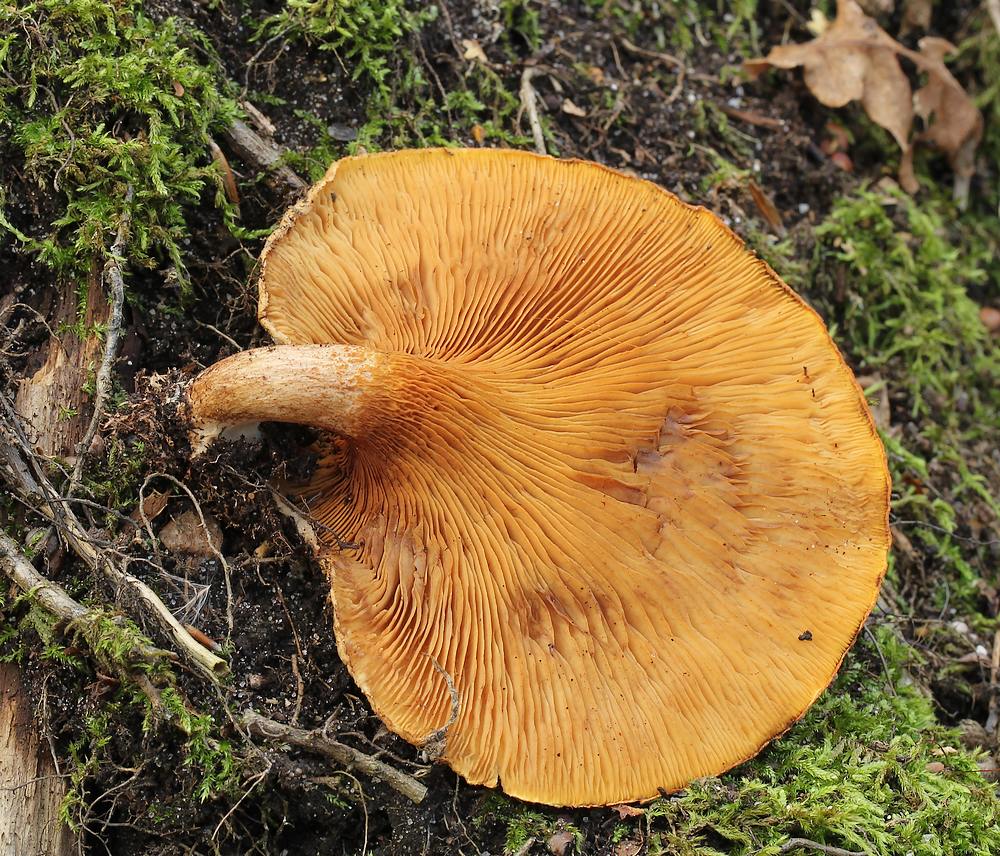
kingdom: Fungi
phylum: Basidiomycota
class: Agaricomycetes
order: Boletales
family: Paxillaceae
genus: Paxillus
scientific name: Paxillus
